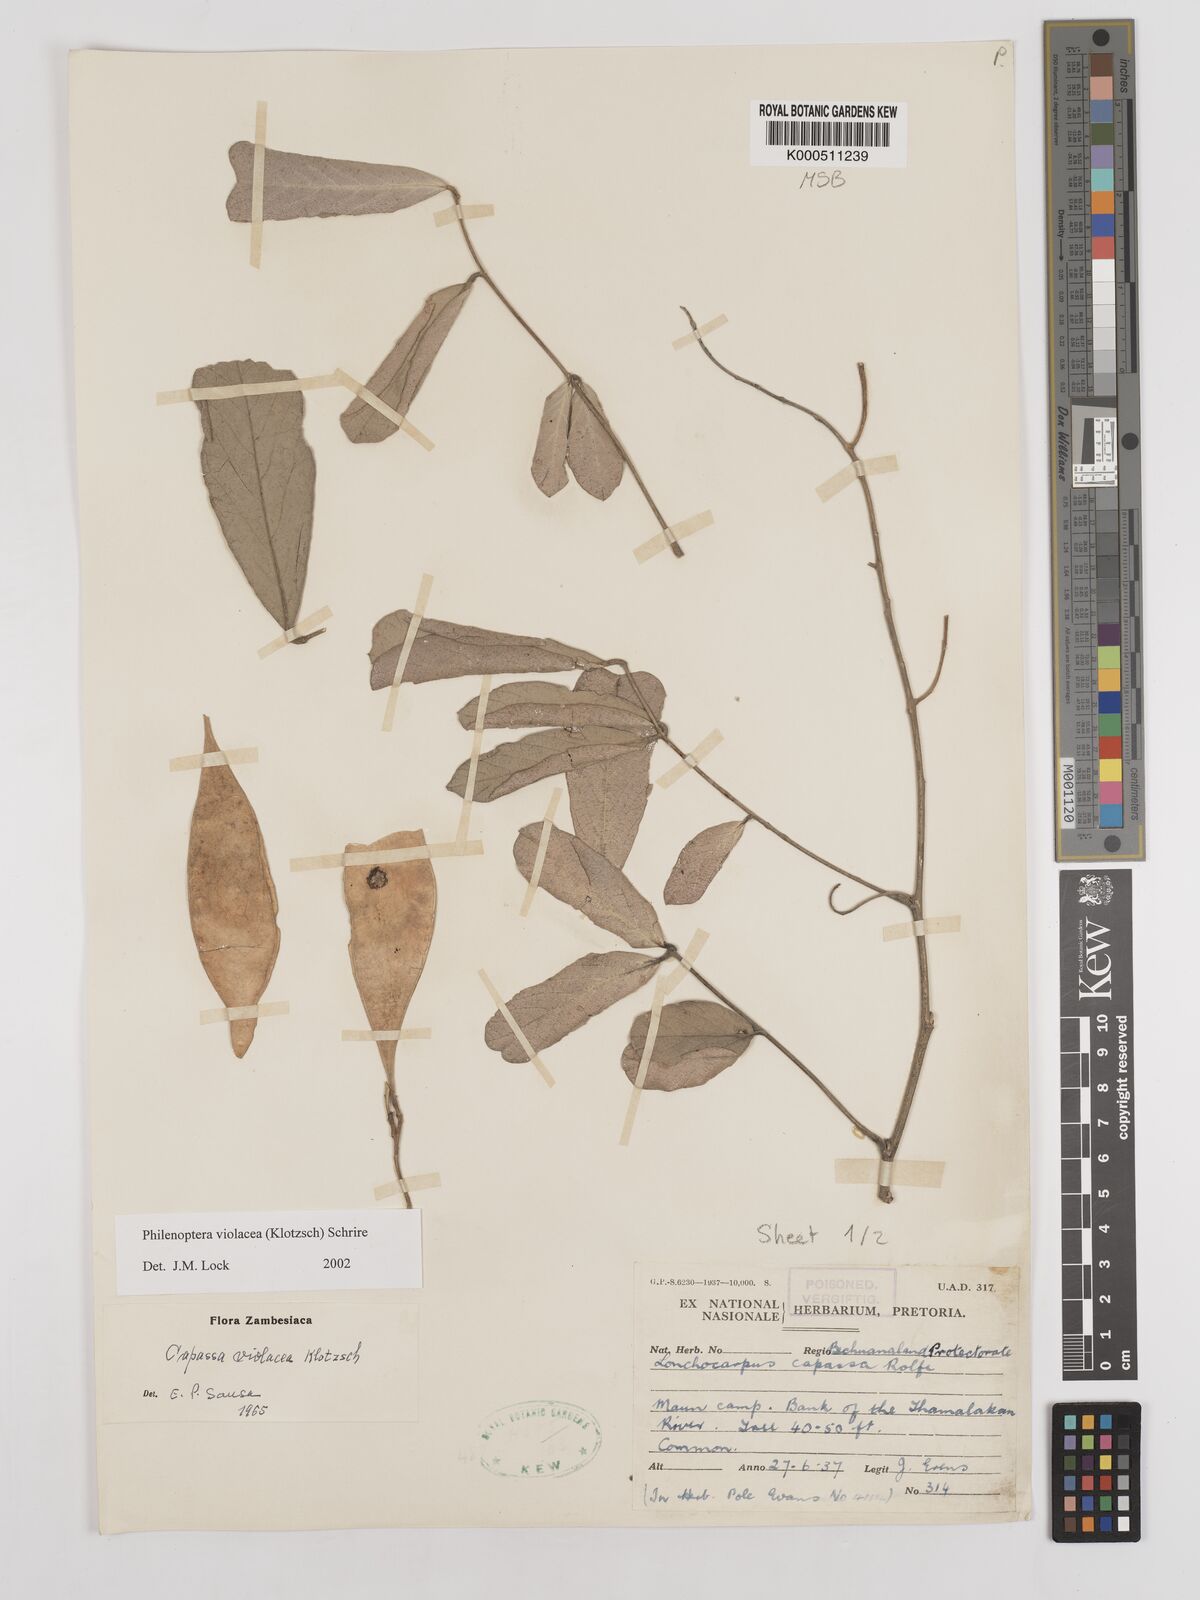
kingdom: Plantae
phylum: Tracheophyta
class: Magnoliopsida
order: Fabales
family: Fabaceae
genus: Philenoptera
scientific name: Philenoptera violacea
